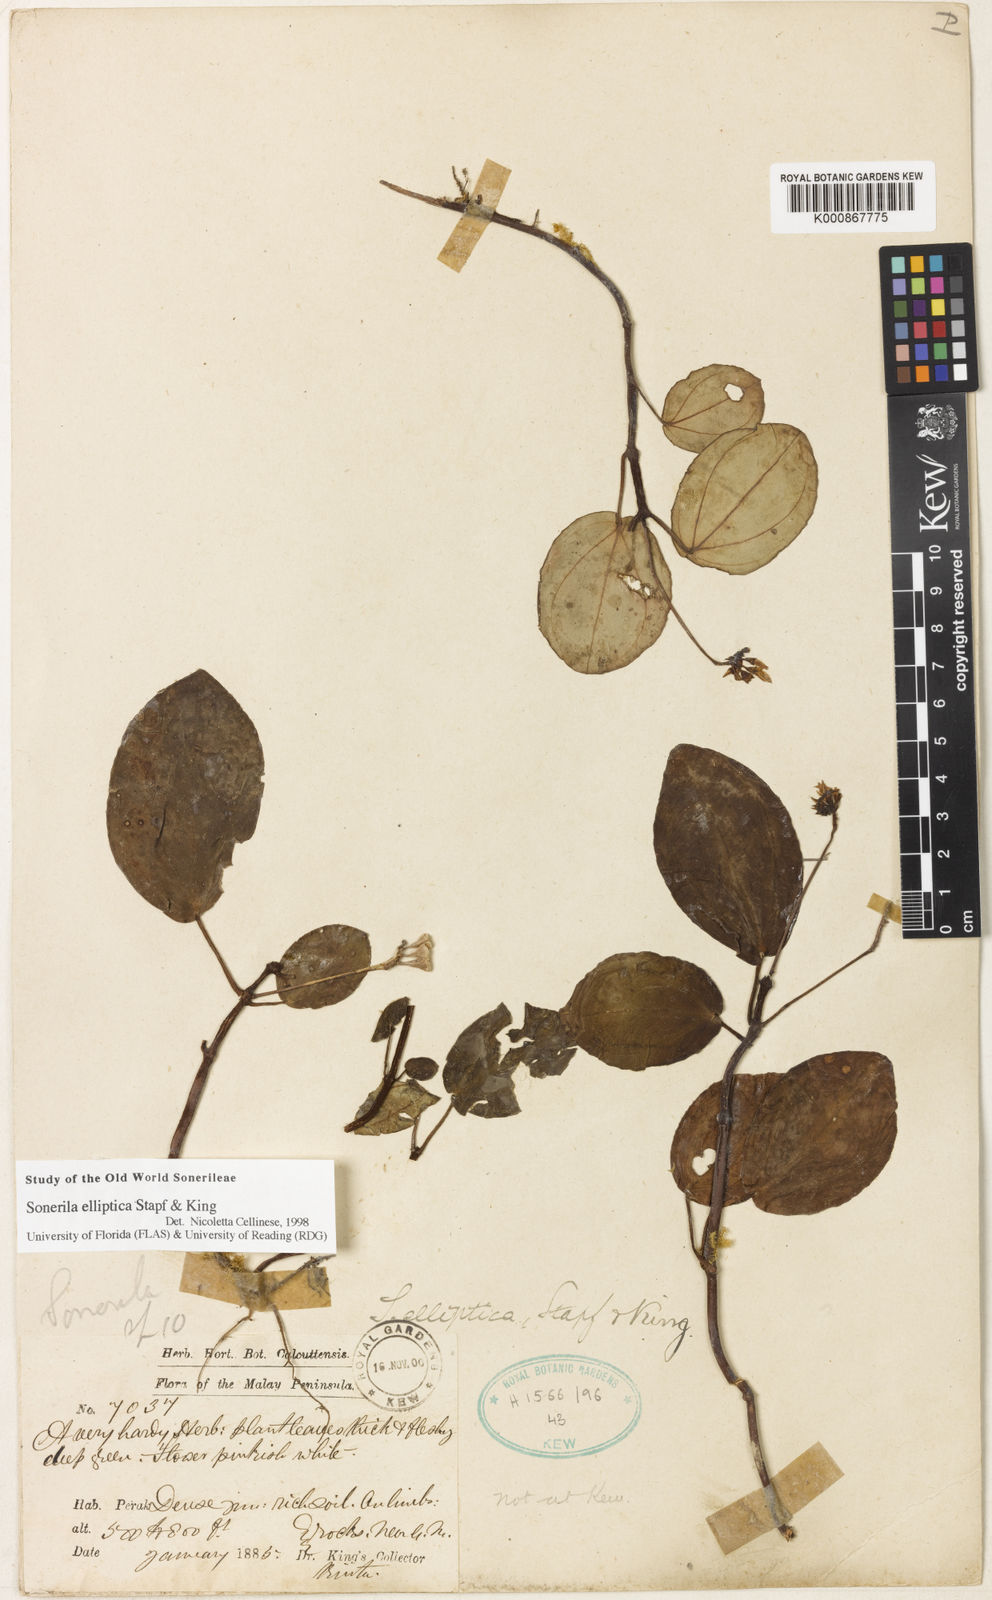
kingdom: Plantae
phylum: Tracheophyta
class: Magnoliopsida
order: Myrtales
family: Melastomataceae
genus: Sonerila
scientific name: Sonerila elliptica
